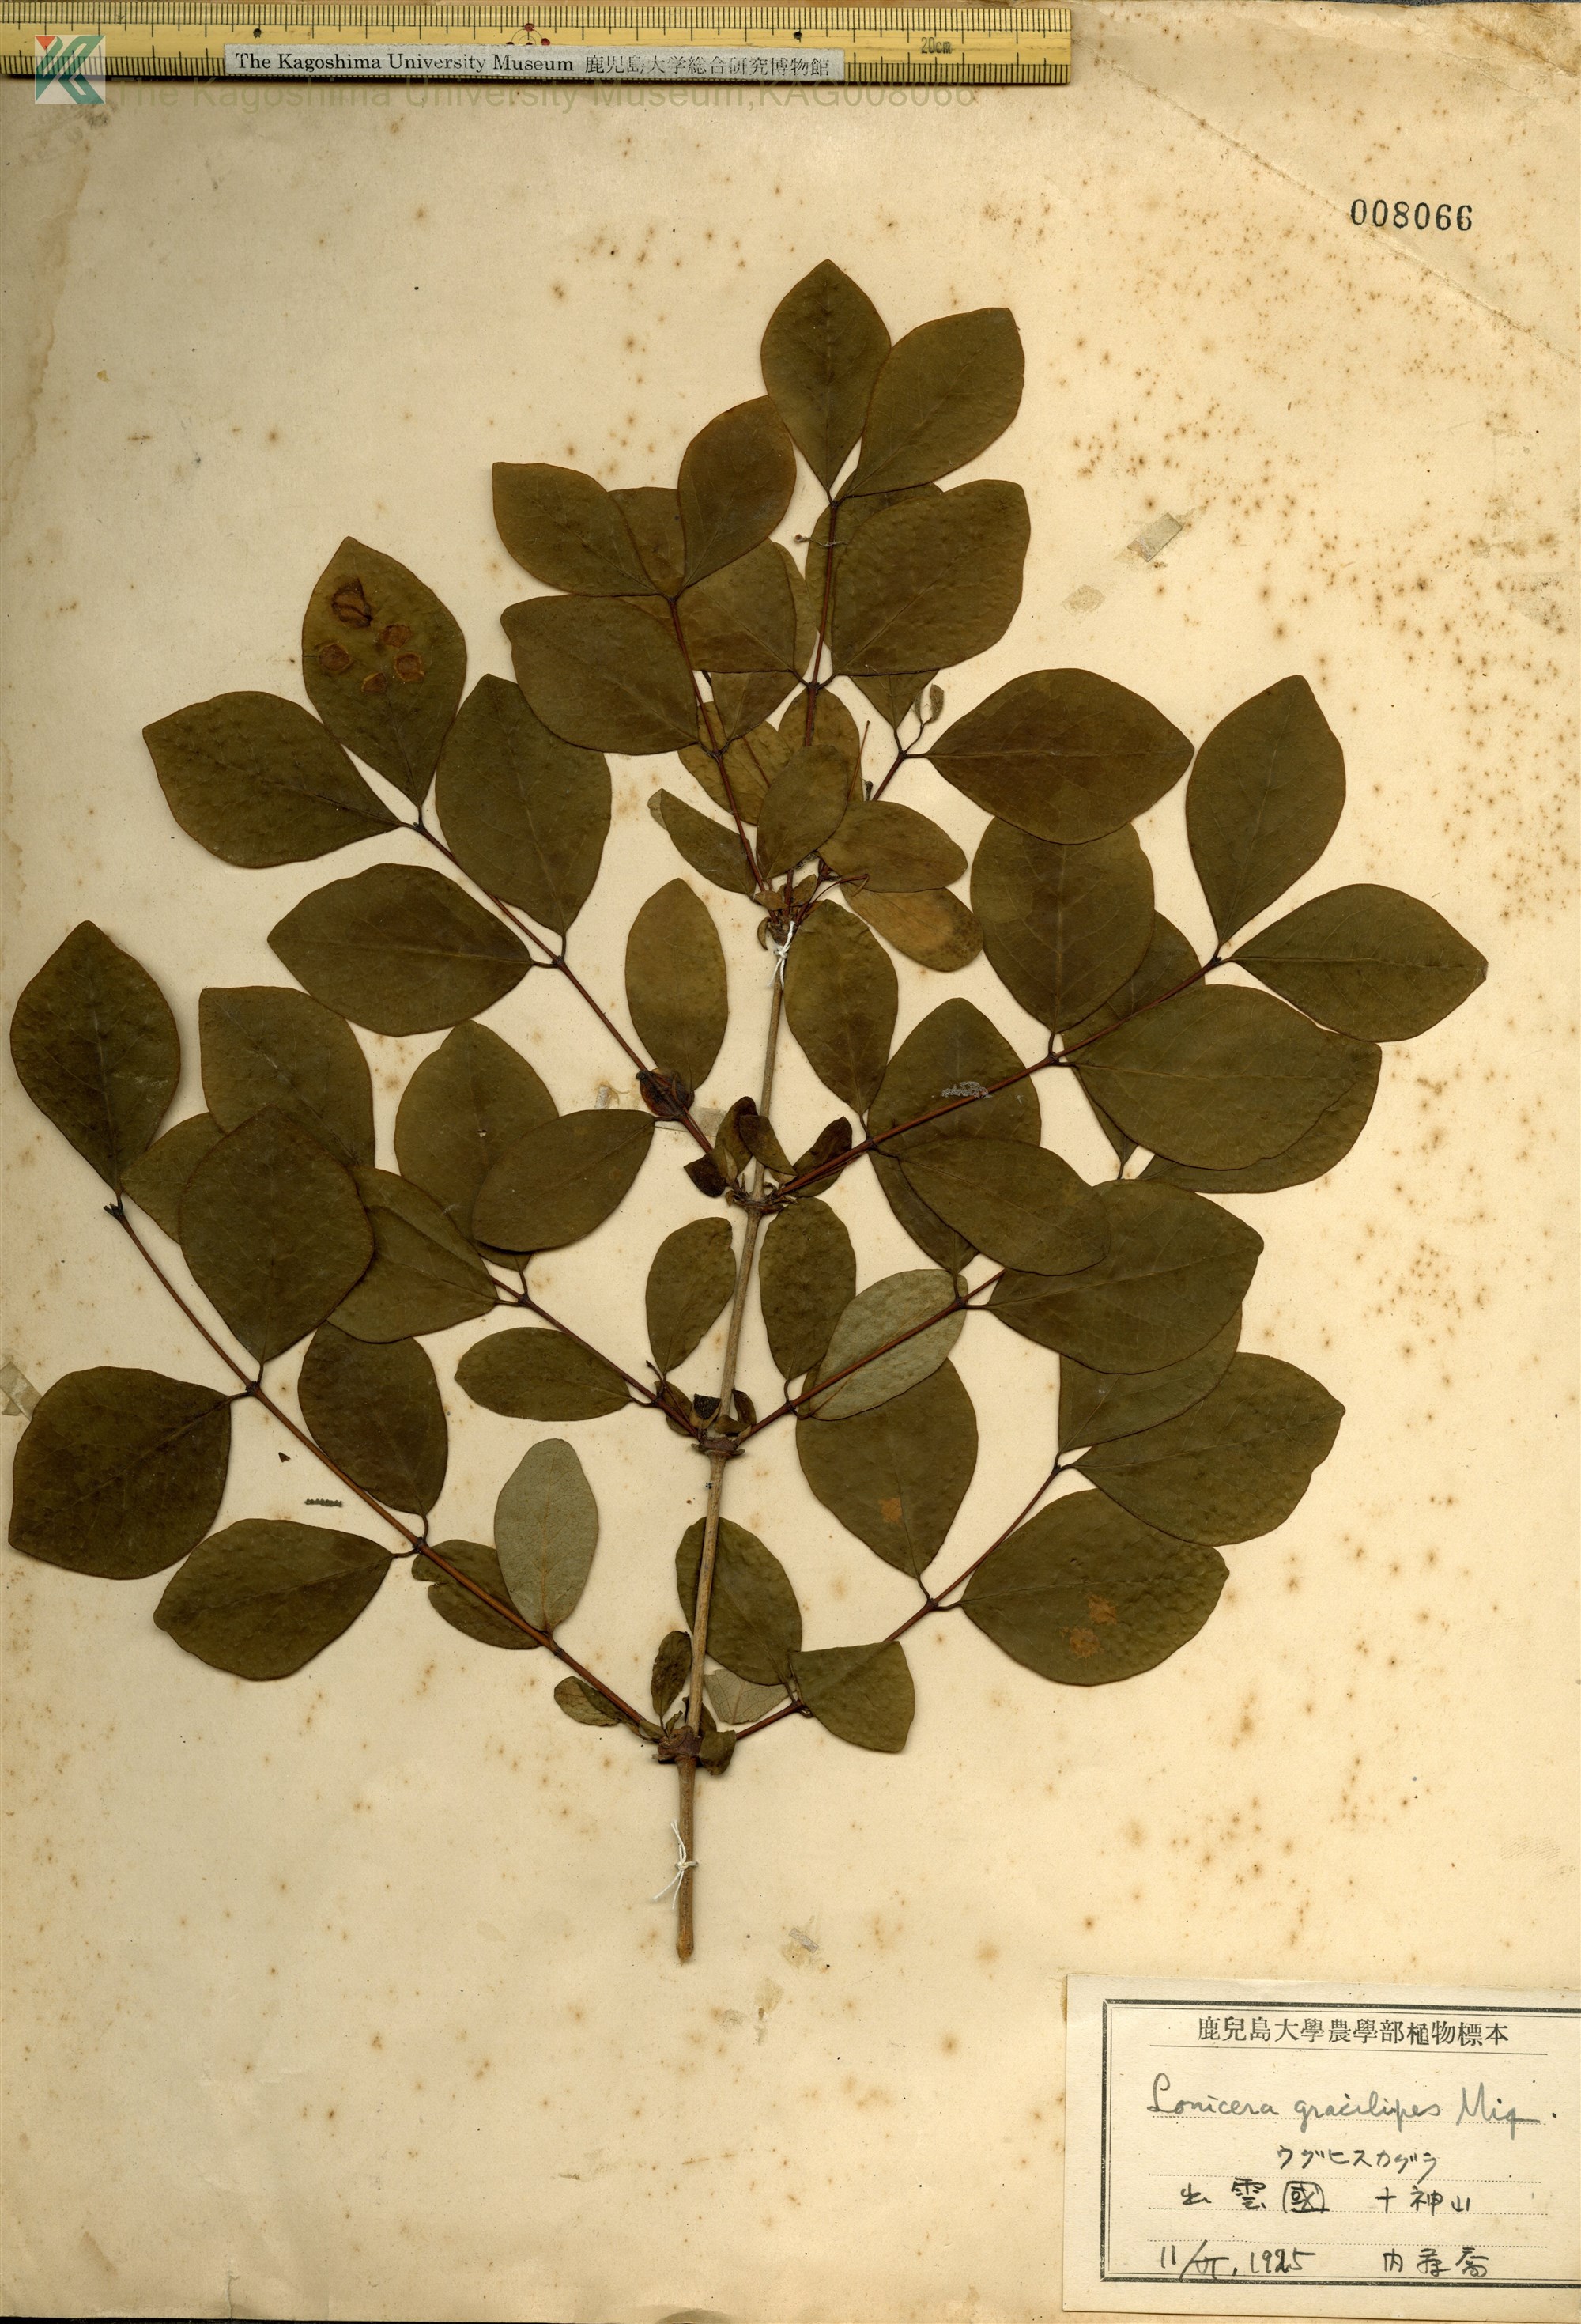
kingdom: Plantae
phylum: Tracheophyta
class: Magnoliopsida
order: Dipsacales
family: Caprifoliaceae
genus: Lonicera
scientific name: Lonicera gracilipes
